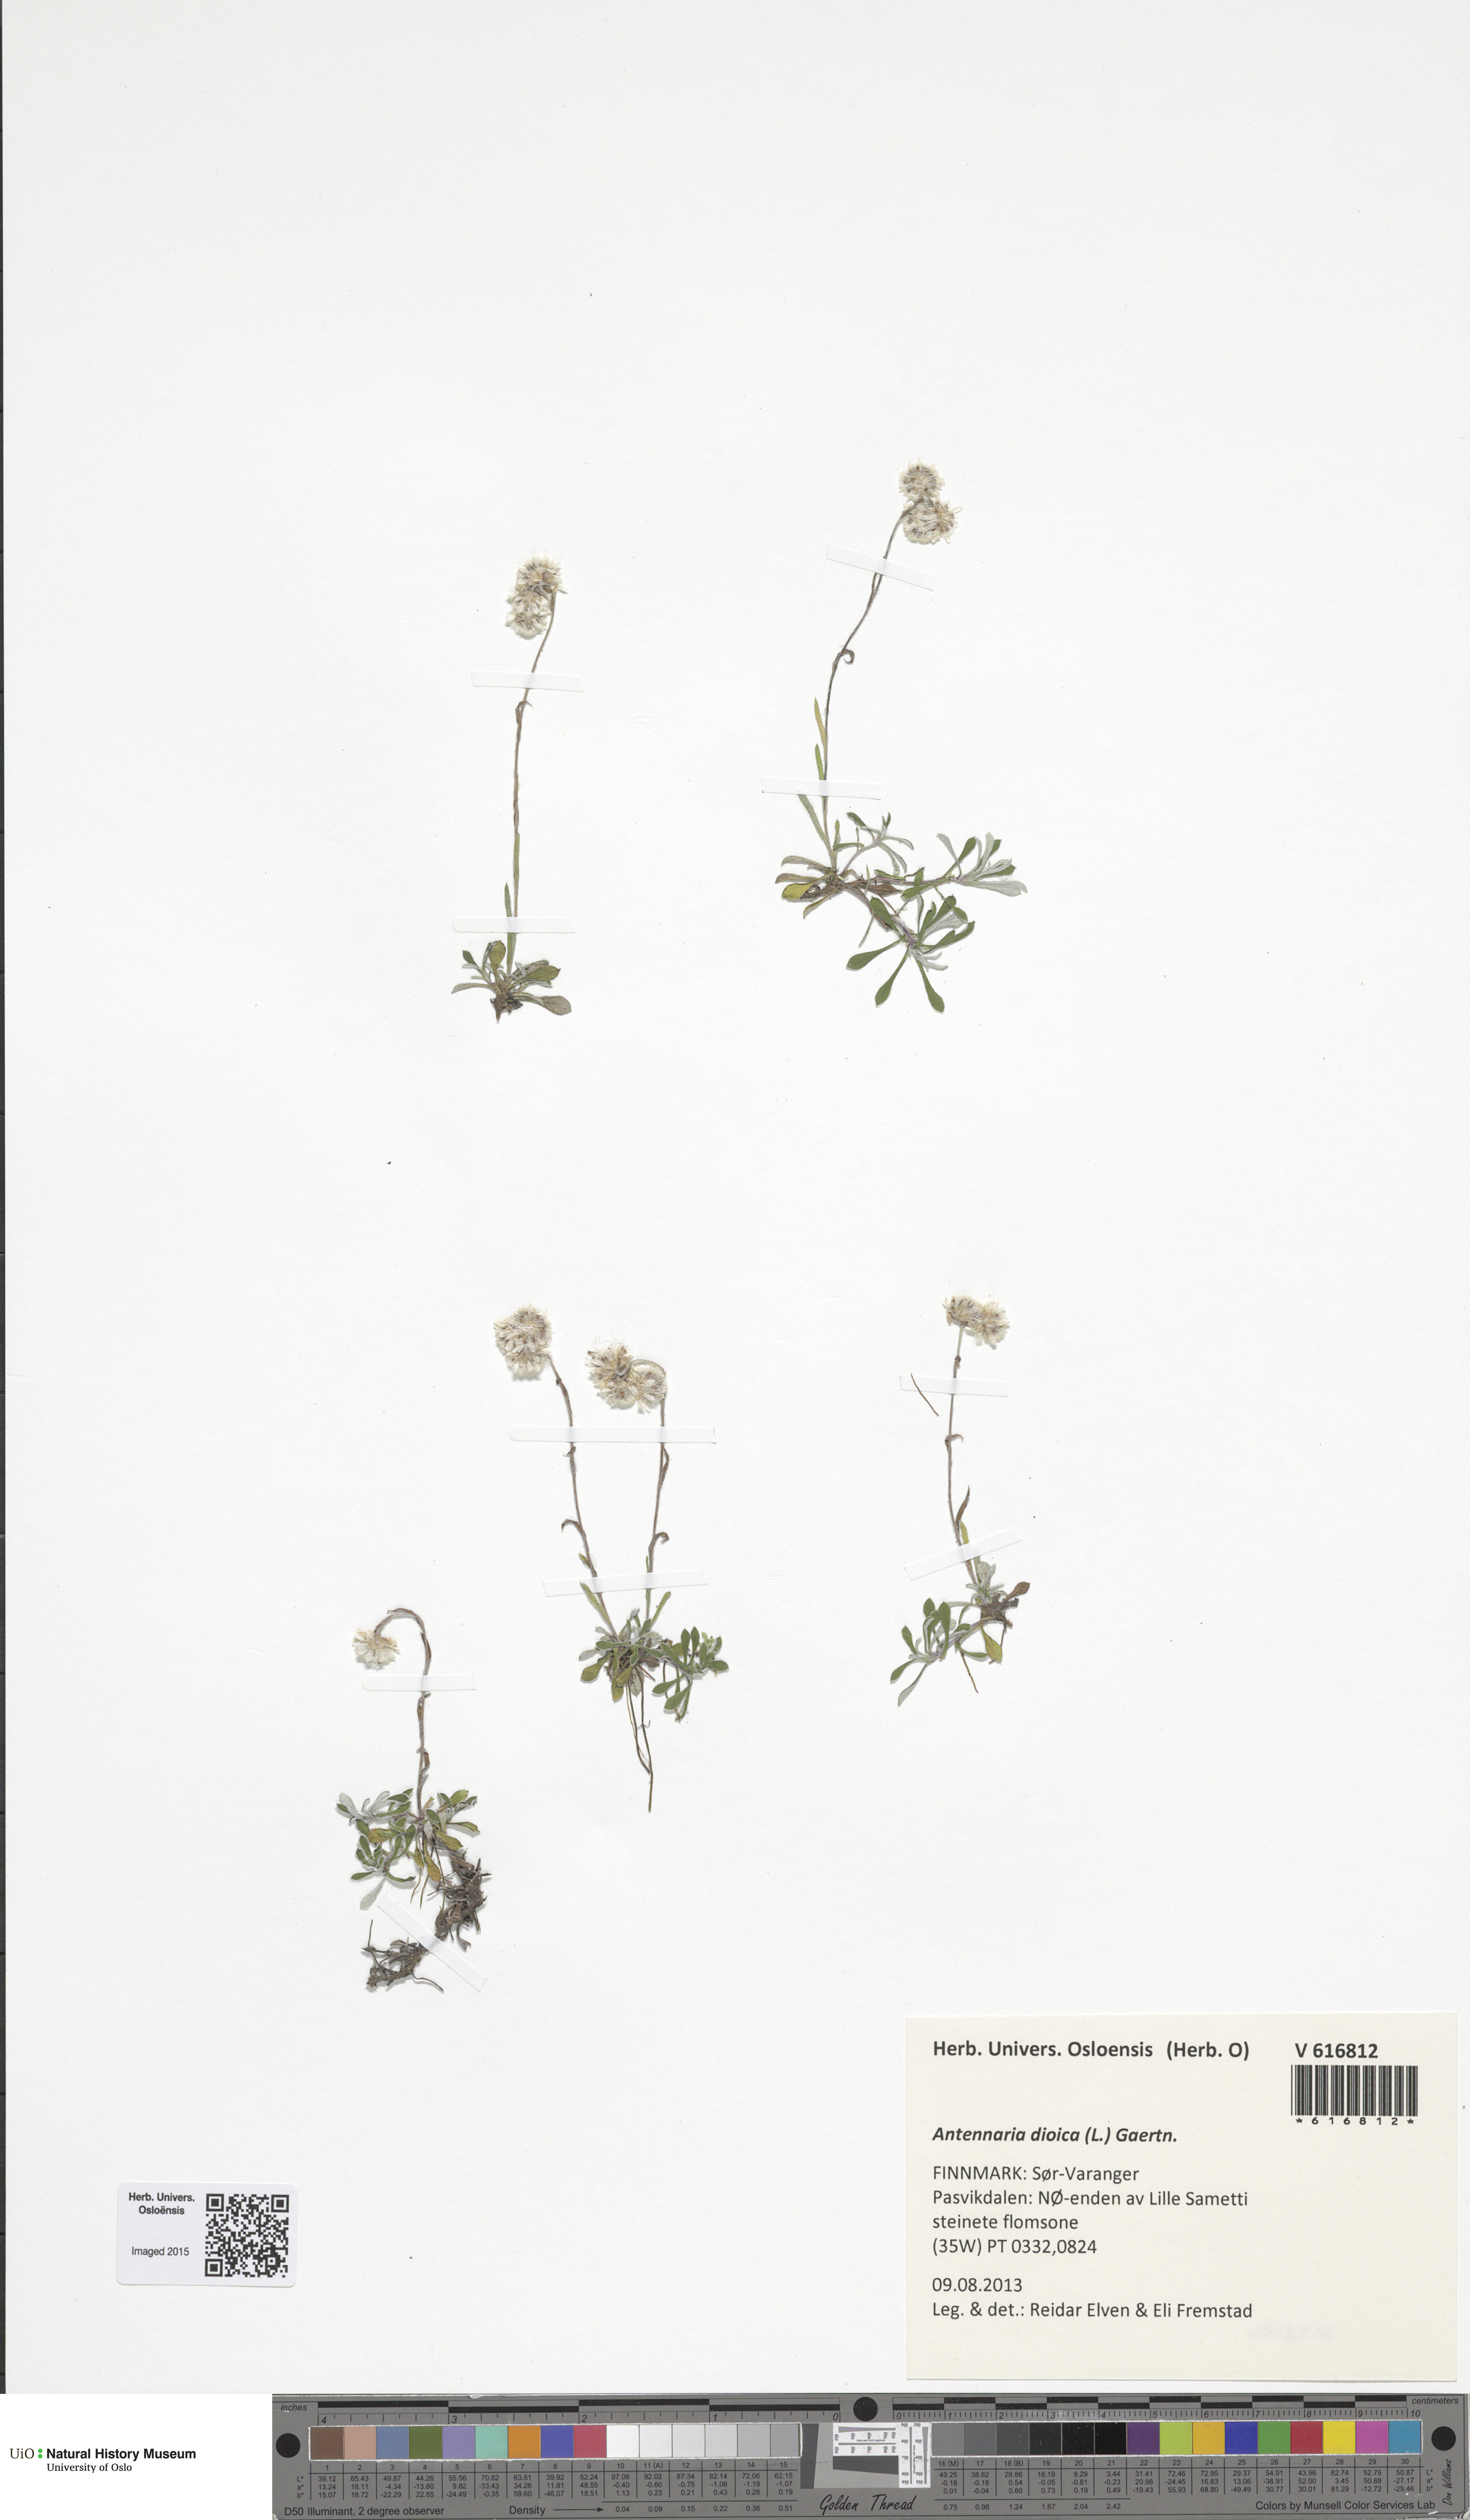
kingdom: Plantae
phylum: Tracheophyta
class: Magnoliopsida
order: Asterales
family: Asteraceae
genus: Antennaria
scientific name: Antennaria dioica
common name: Mountain everlasting
